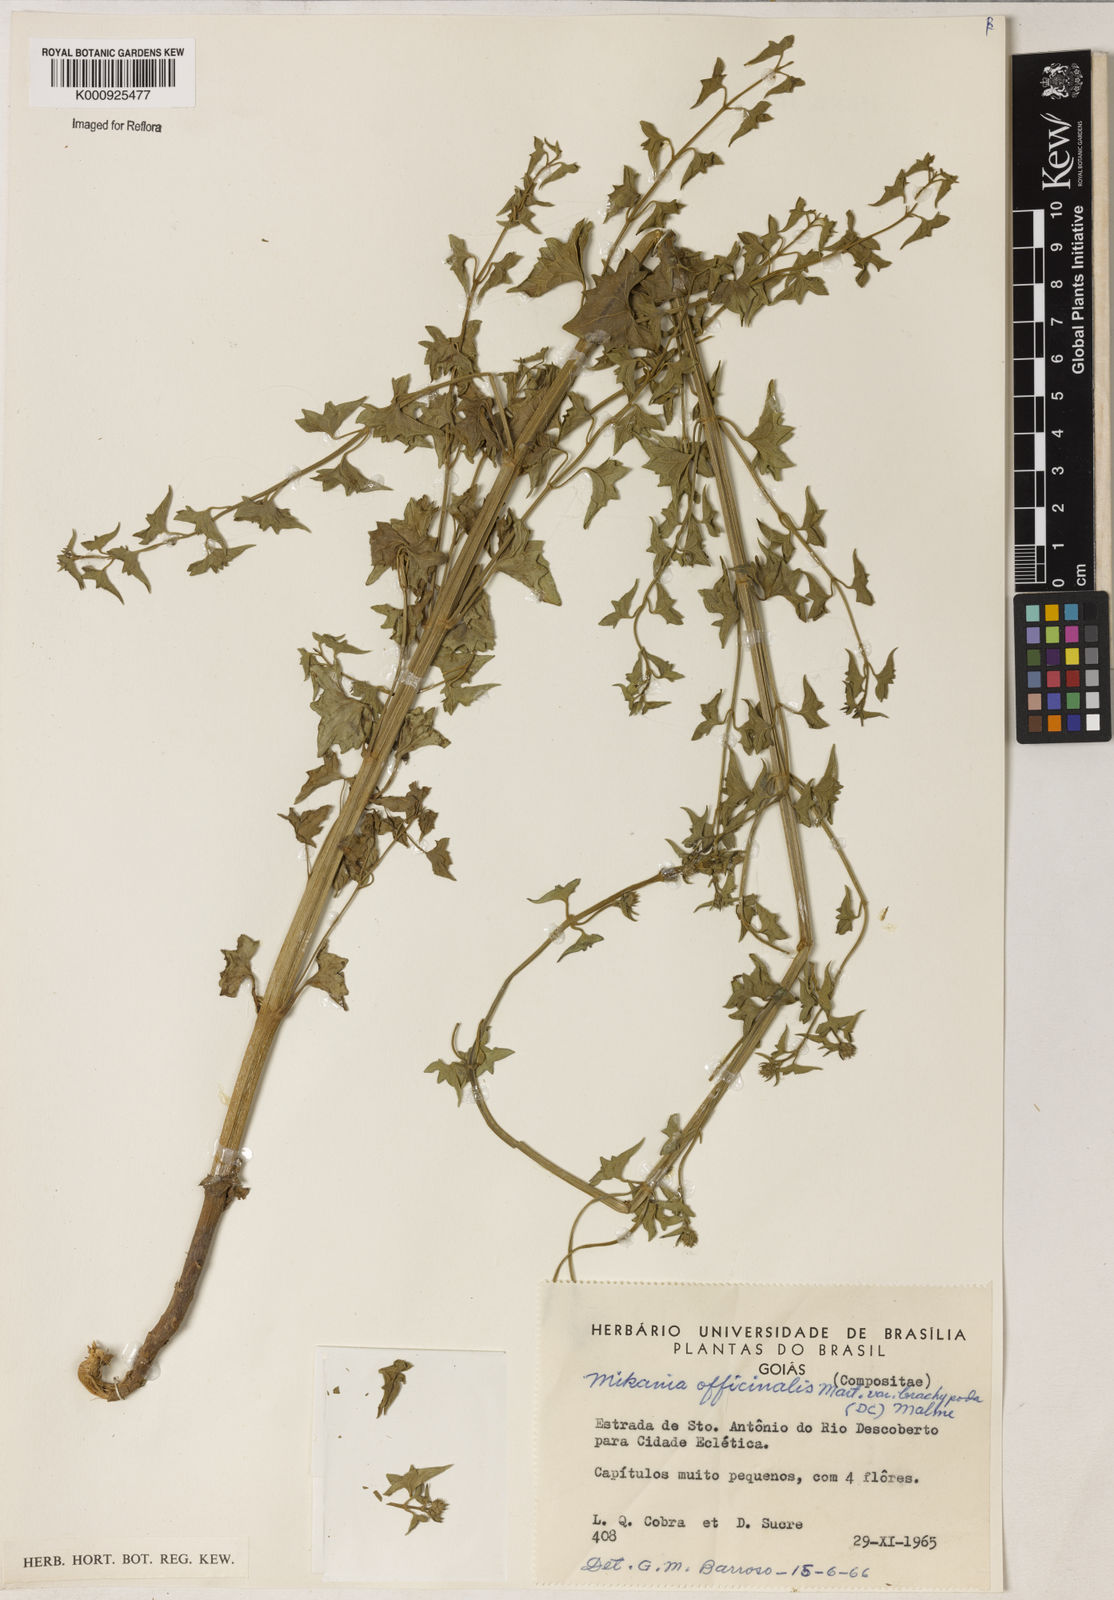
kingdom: Plantae
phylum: Tracheophyta
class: Magnoliopsida
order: Asterales
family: Asteraceae
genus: Mikania
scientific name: Mikania officinalis
